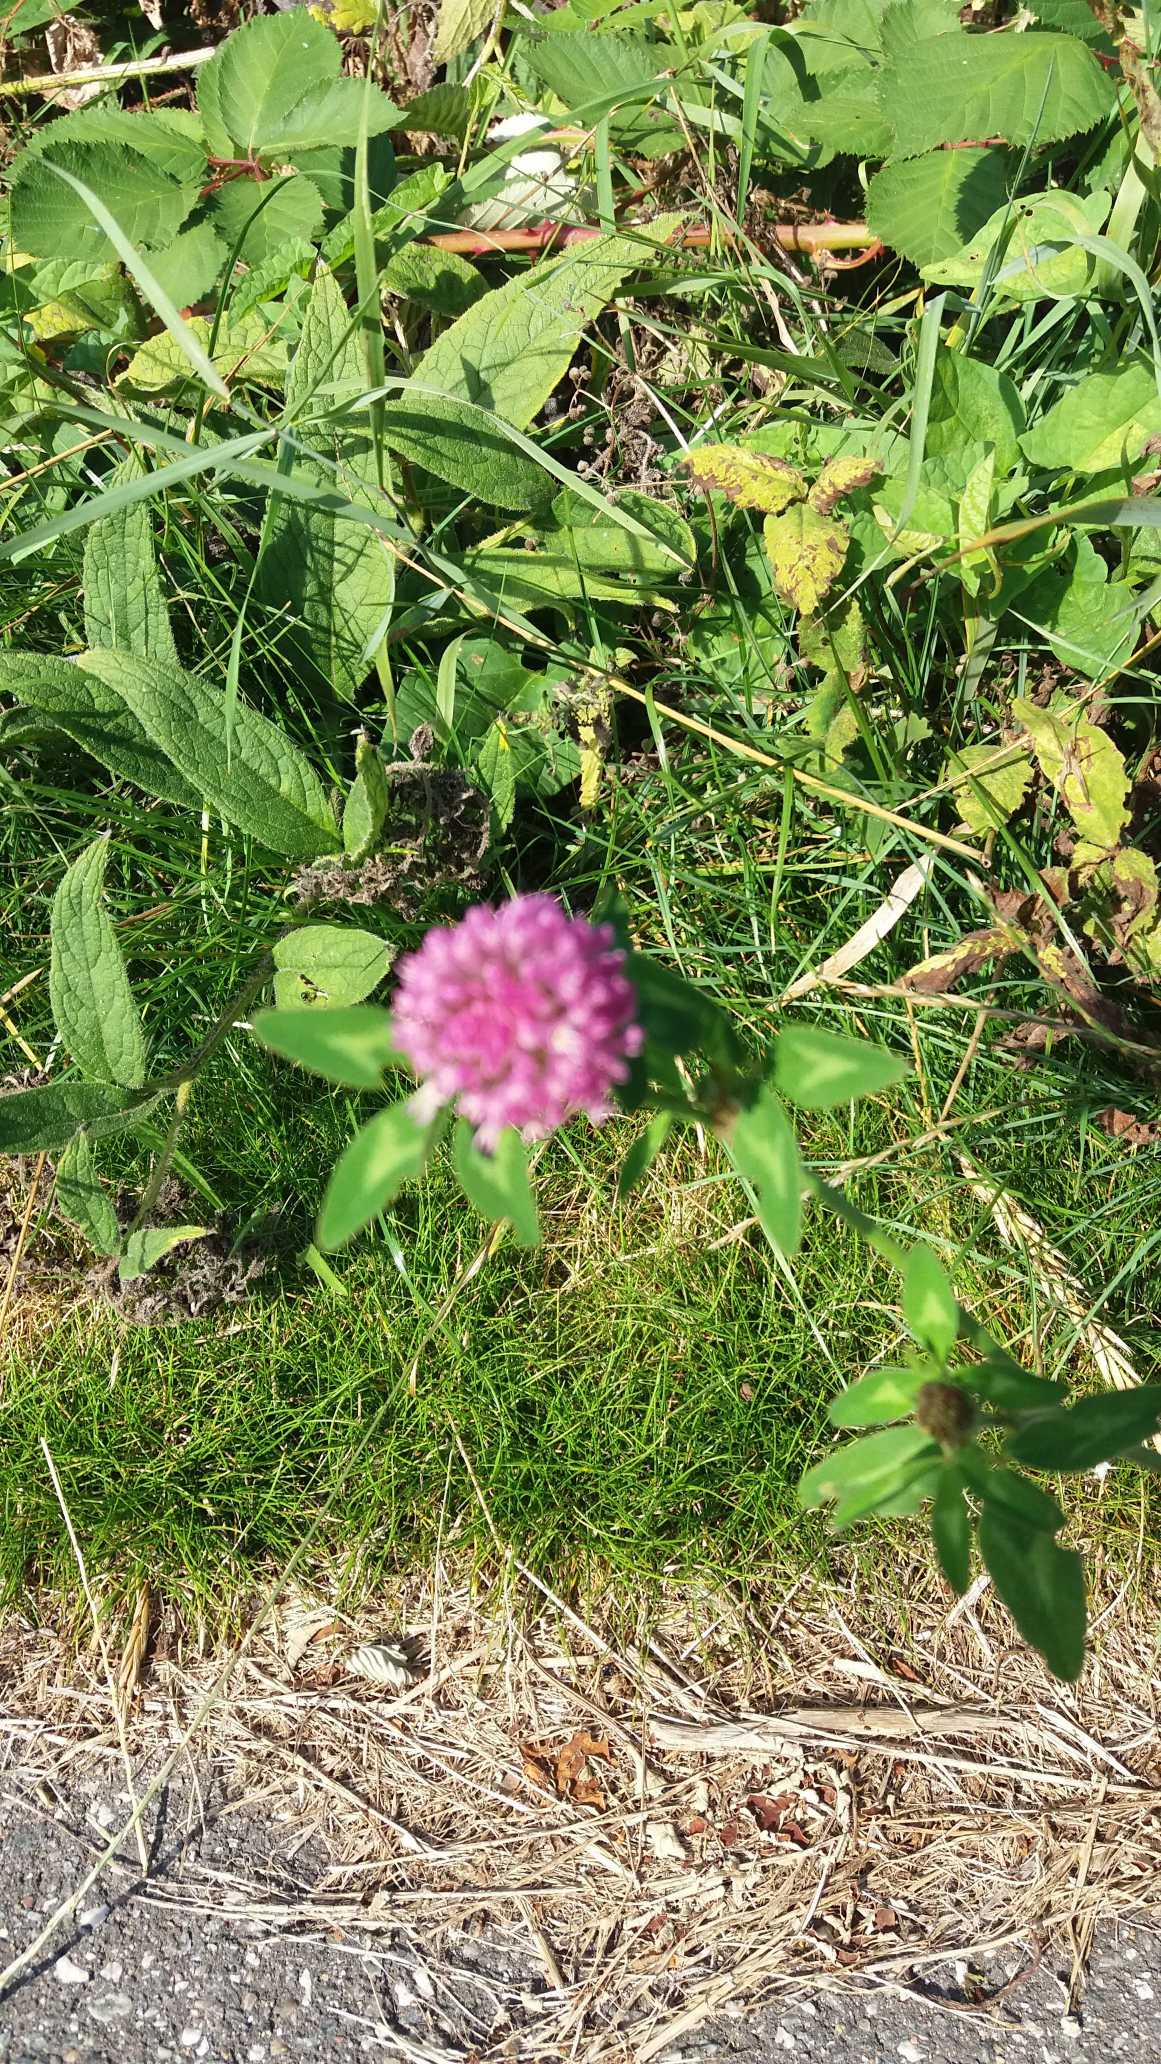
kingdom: Plantae
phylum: Tracheophyta
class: Magnoliopsida
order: Fabales
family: Fabaceae
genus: Trifolium
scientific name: Trifolium pratense
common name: Rød-kløver
